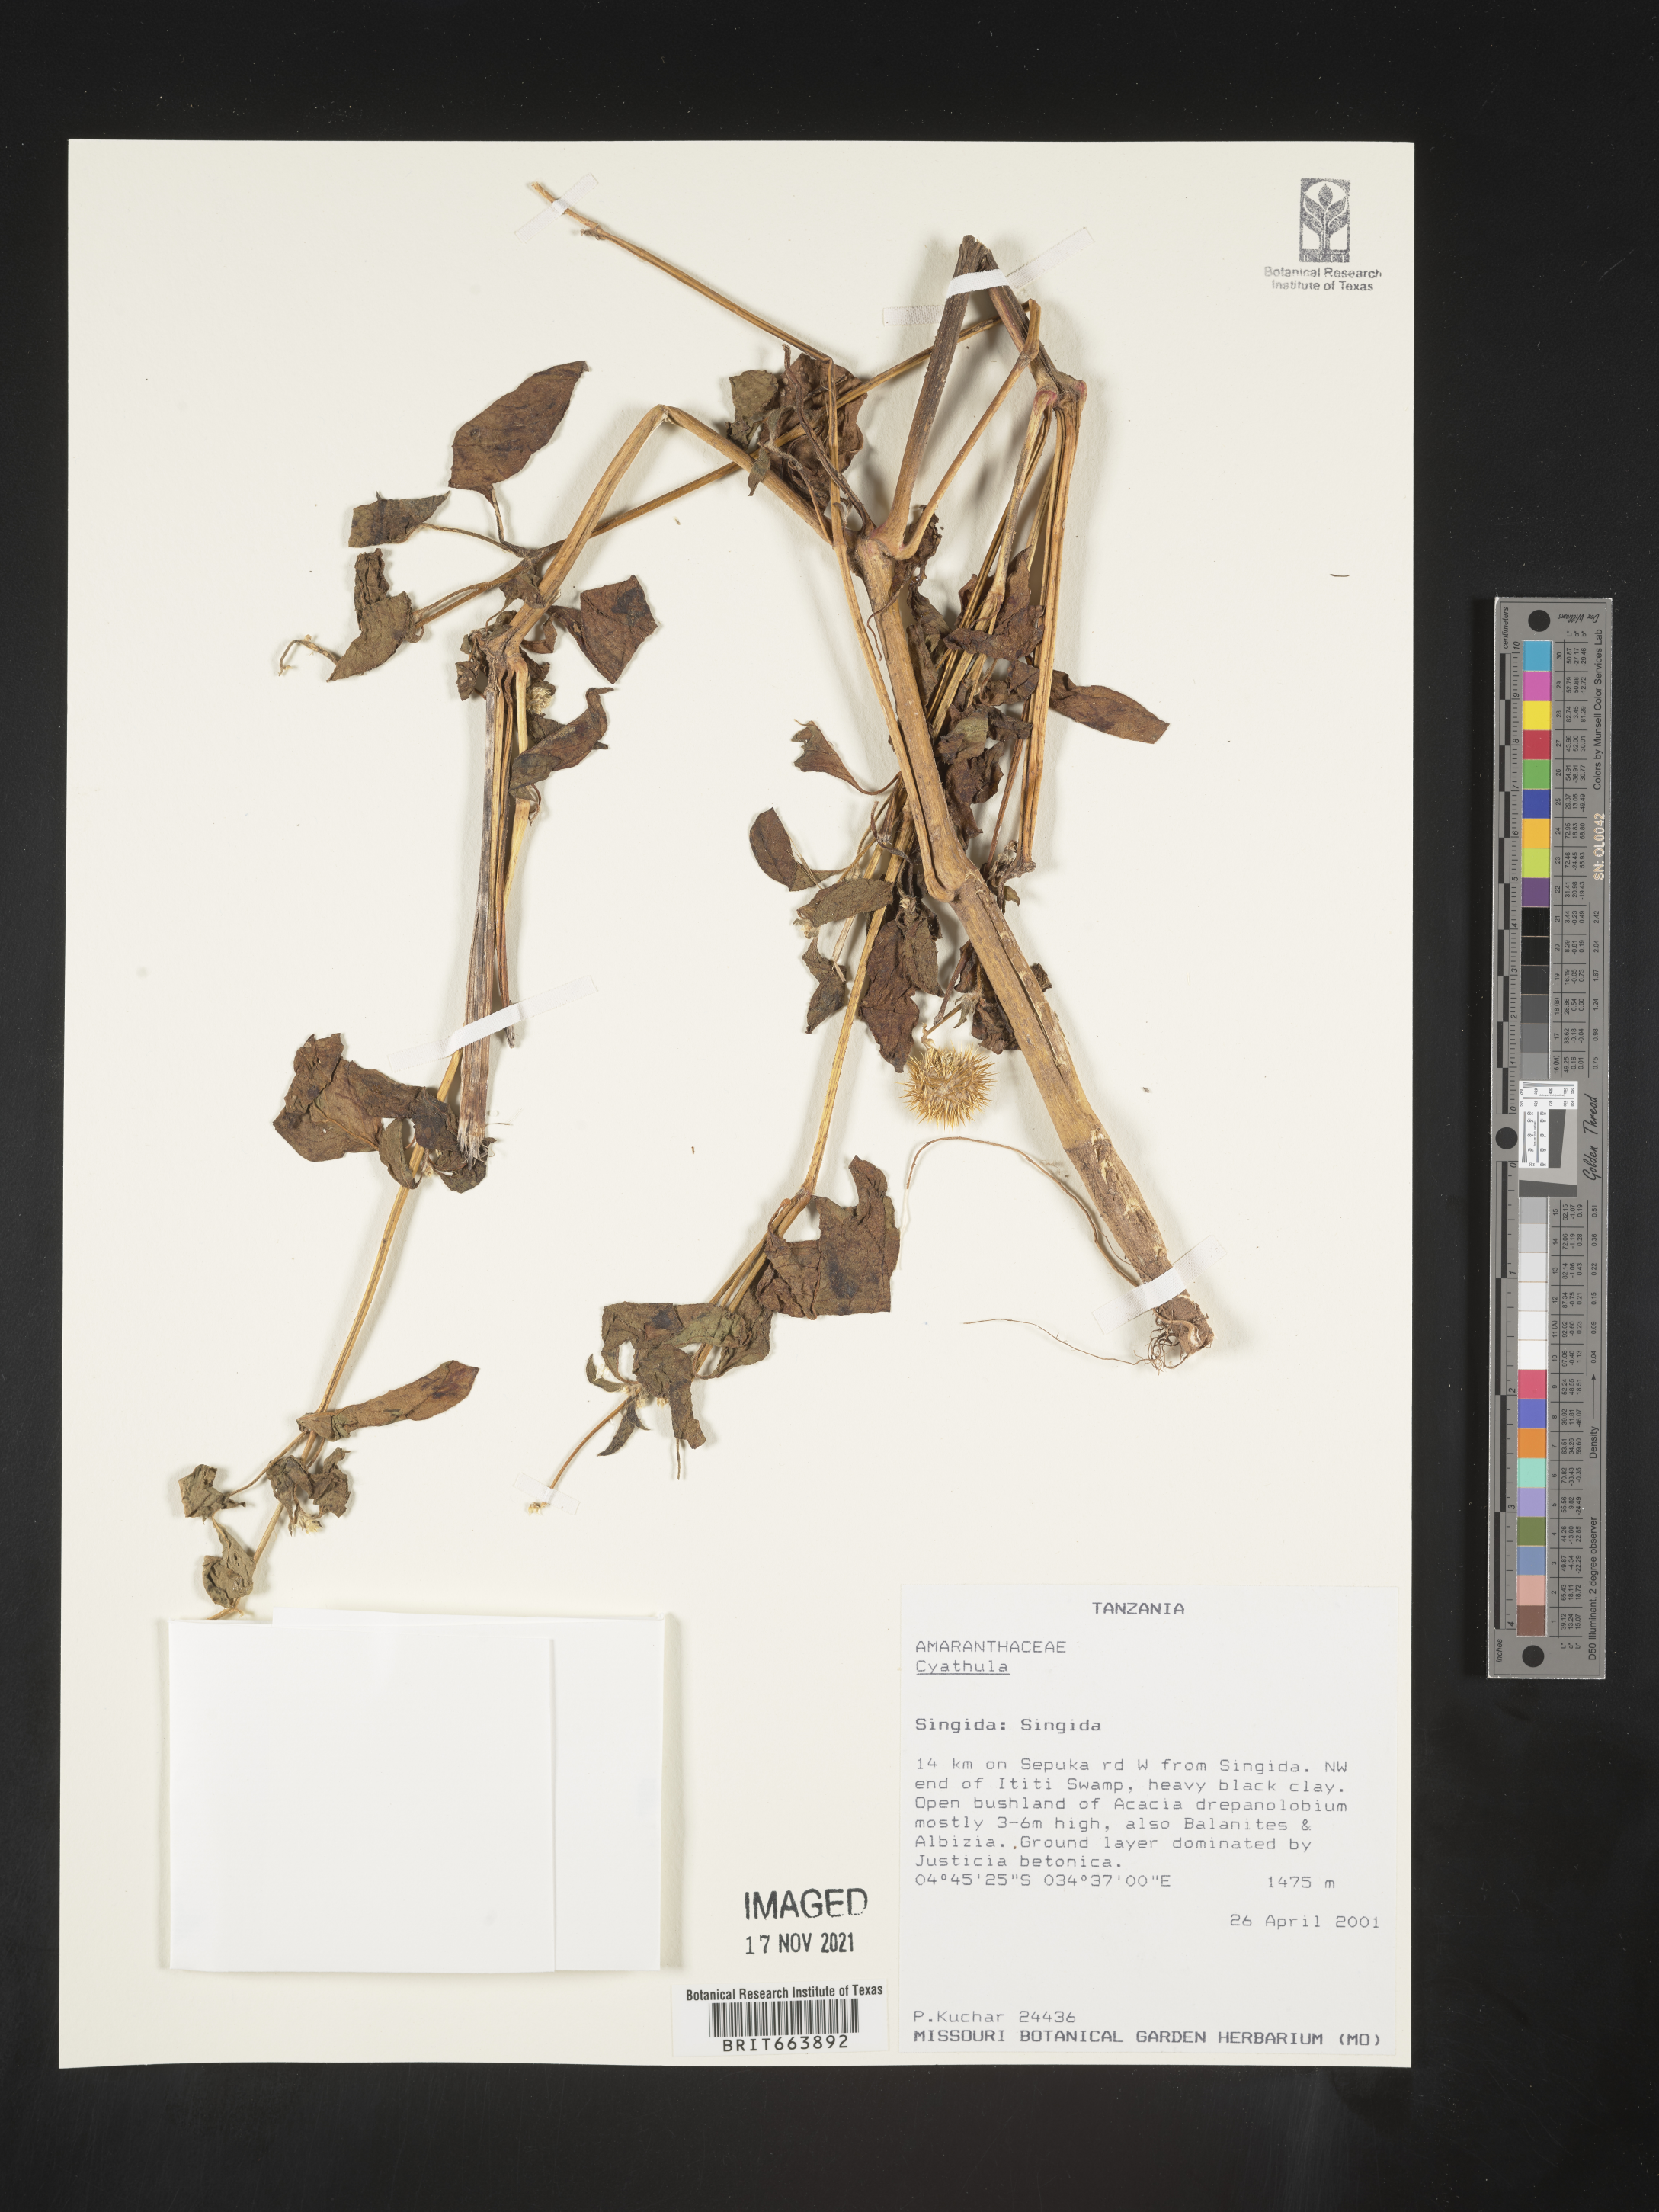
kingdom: Plantae
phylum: Tracheophyta
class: Magnoliopsida
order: Caryophyllales
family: Amaranthaceae
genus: Cyathula
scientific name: Cyathula
